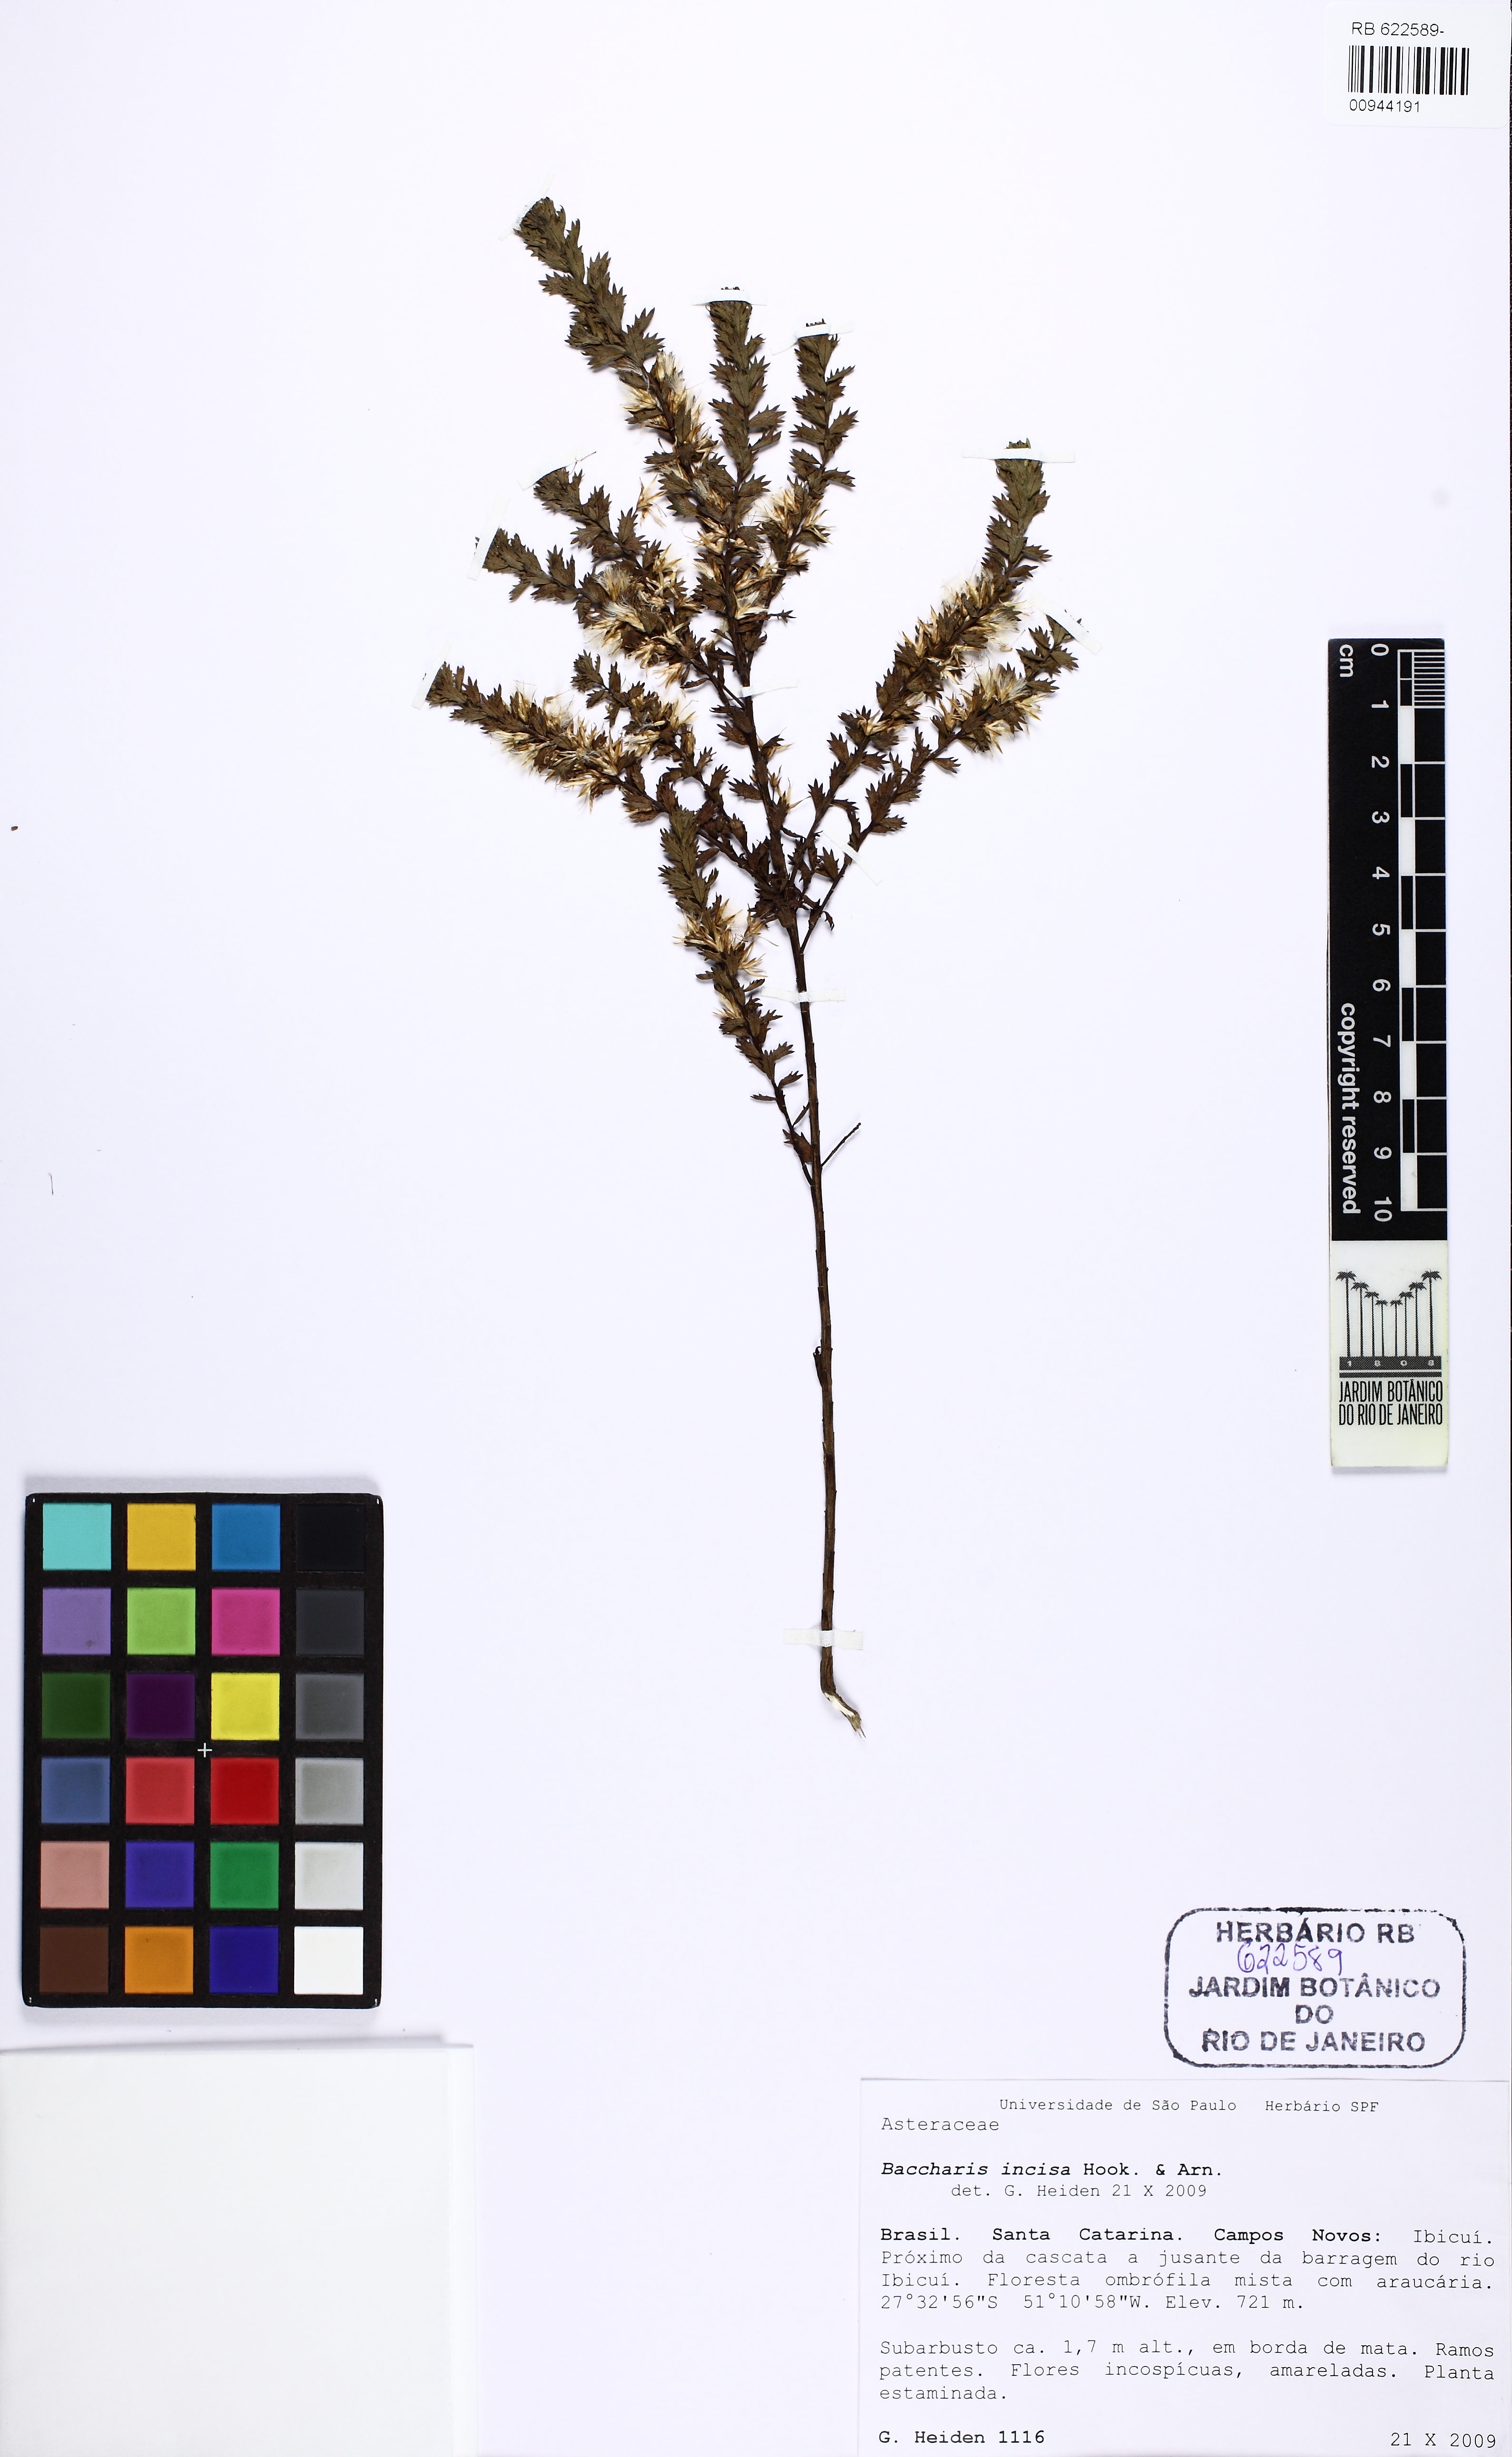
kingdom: Plantae
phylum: Tracheophyta
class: Magnoliopsida
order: Asterales
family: Asteraceae
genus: Baccharis
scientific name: Baccharis incisa
